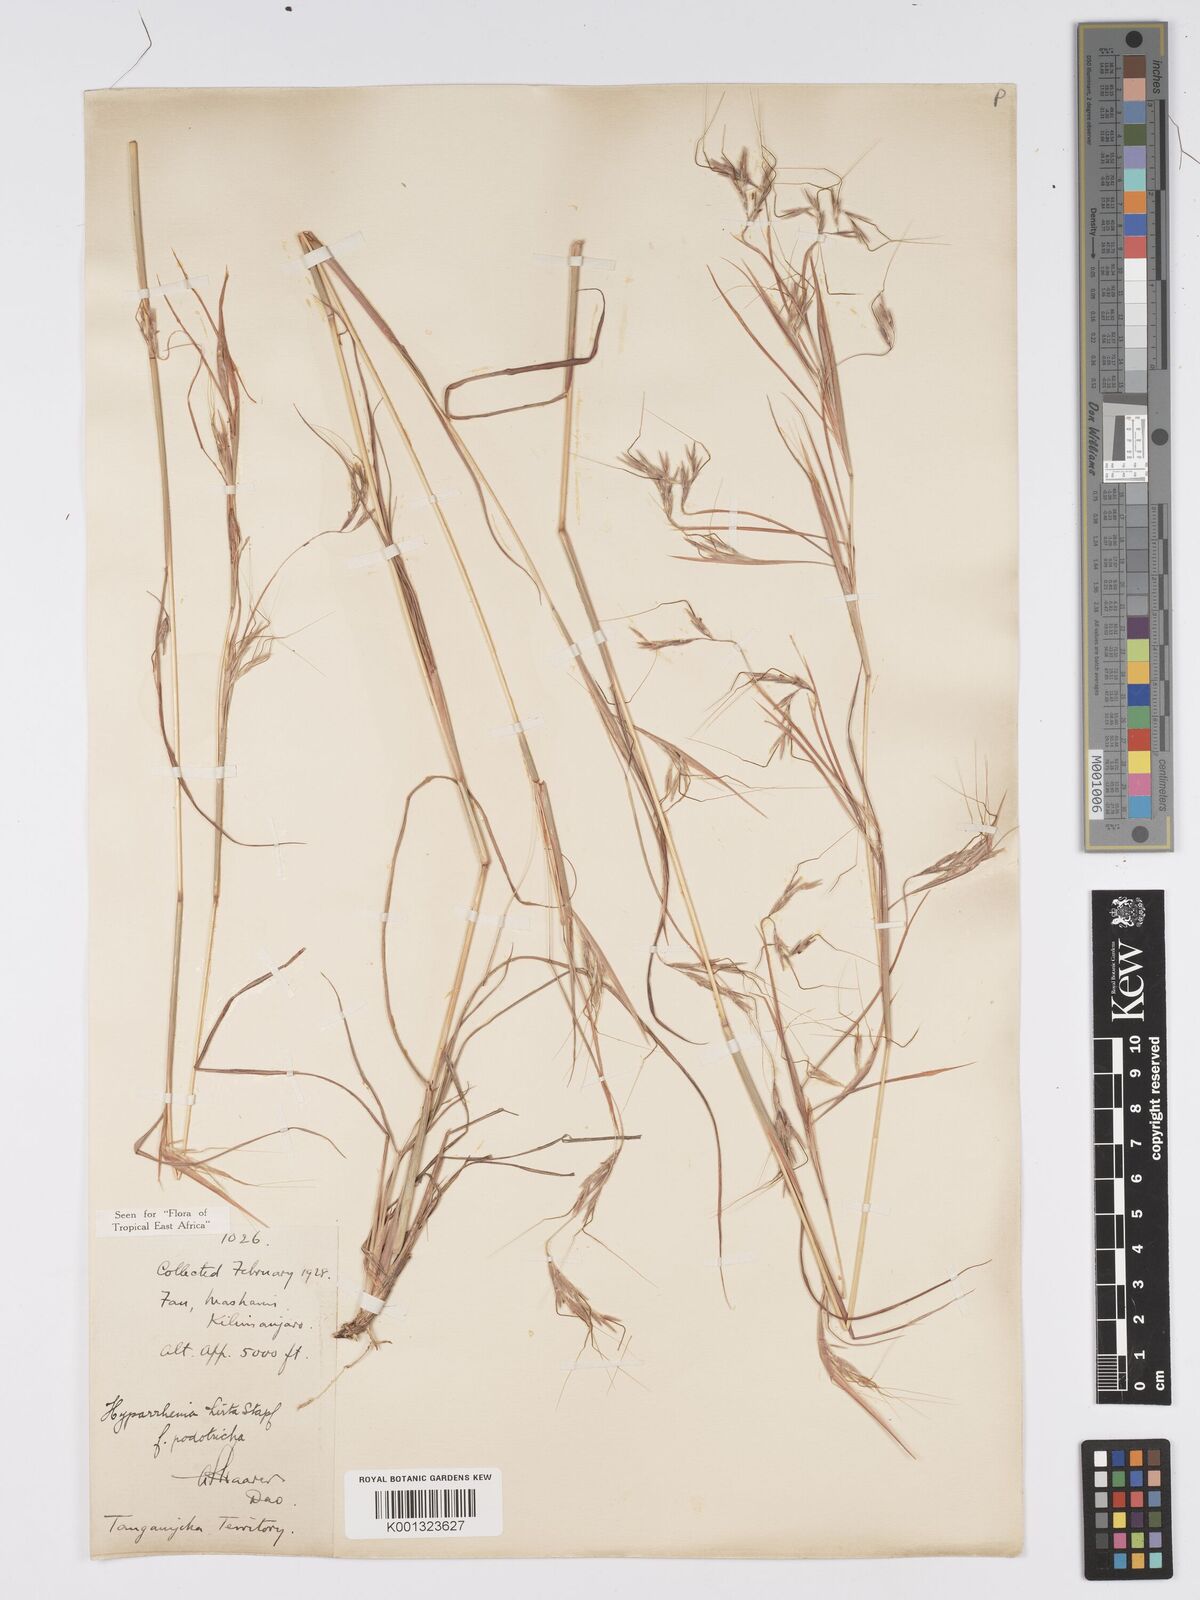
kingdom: Plantae
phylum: Tracheophyta
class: Liliopsida
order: Poales
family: Poaceae
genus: Hyparrhenia
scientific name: Hyparrhenia hirta
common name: Thatching grass
